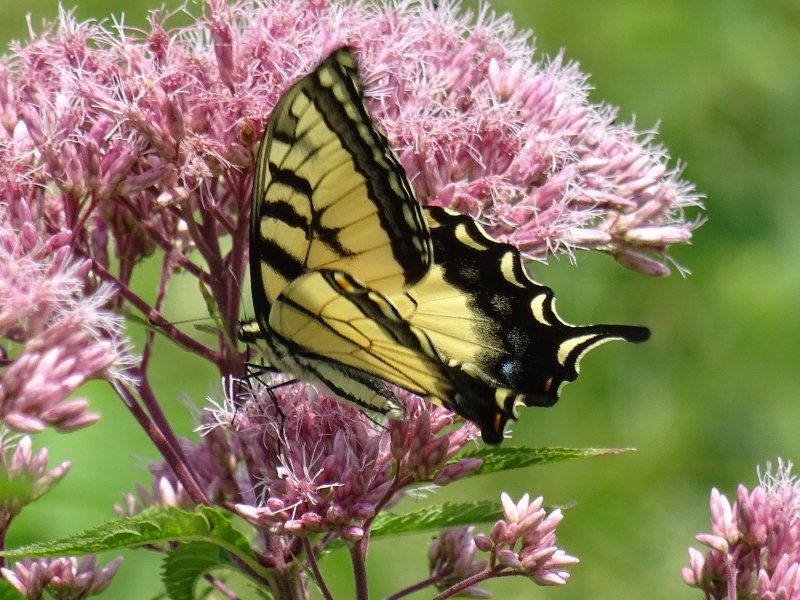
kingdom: Animalia
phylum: Arthropoda
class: Insecta
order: Lepidoptera
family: Papilionidae
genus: Pterourus
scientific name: Pterourus glaucus
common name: Eastern Tiger Swallowtail
